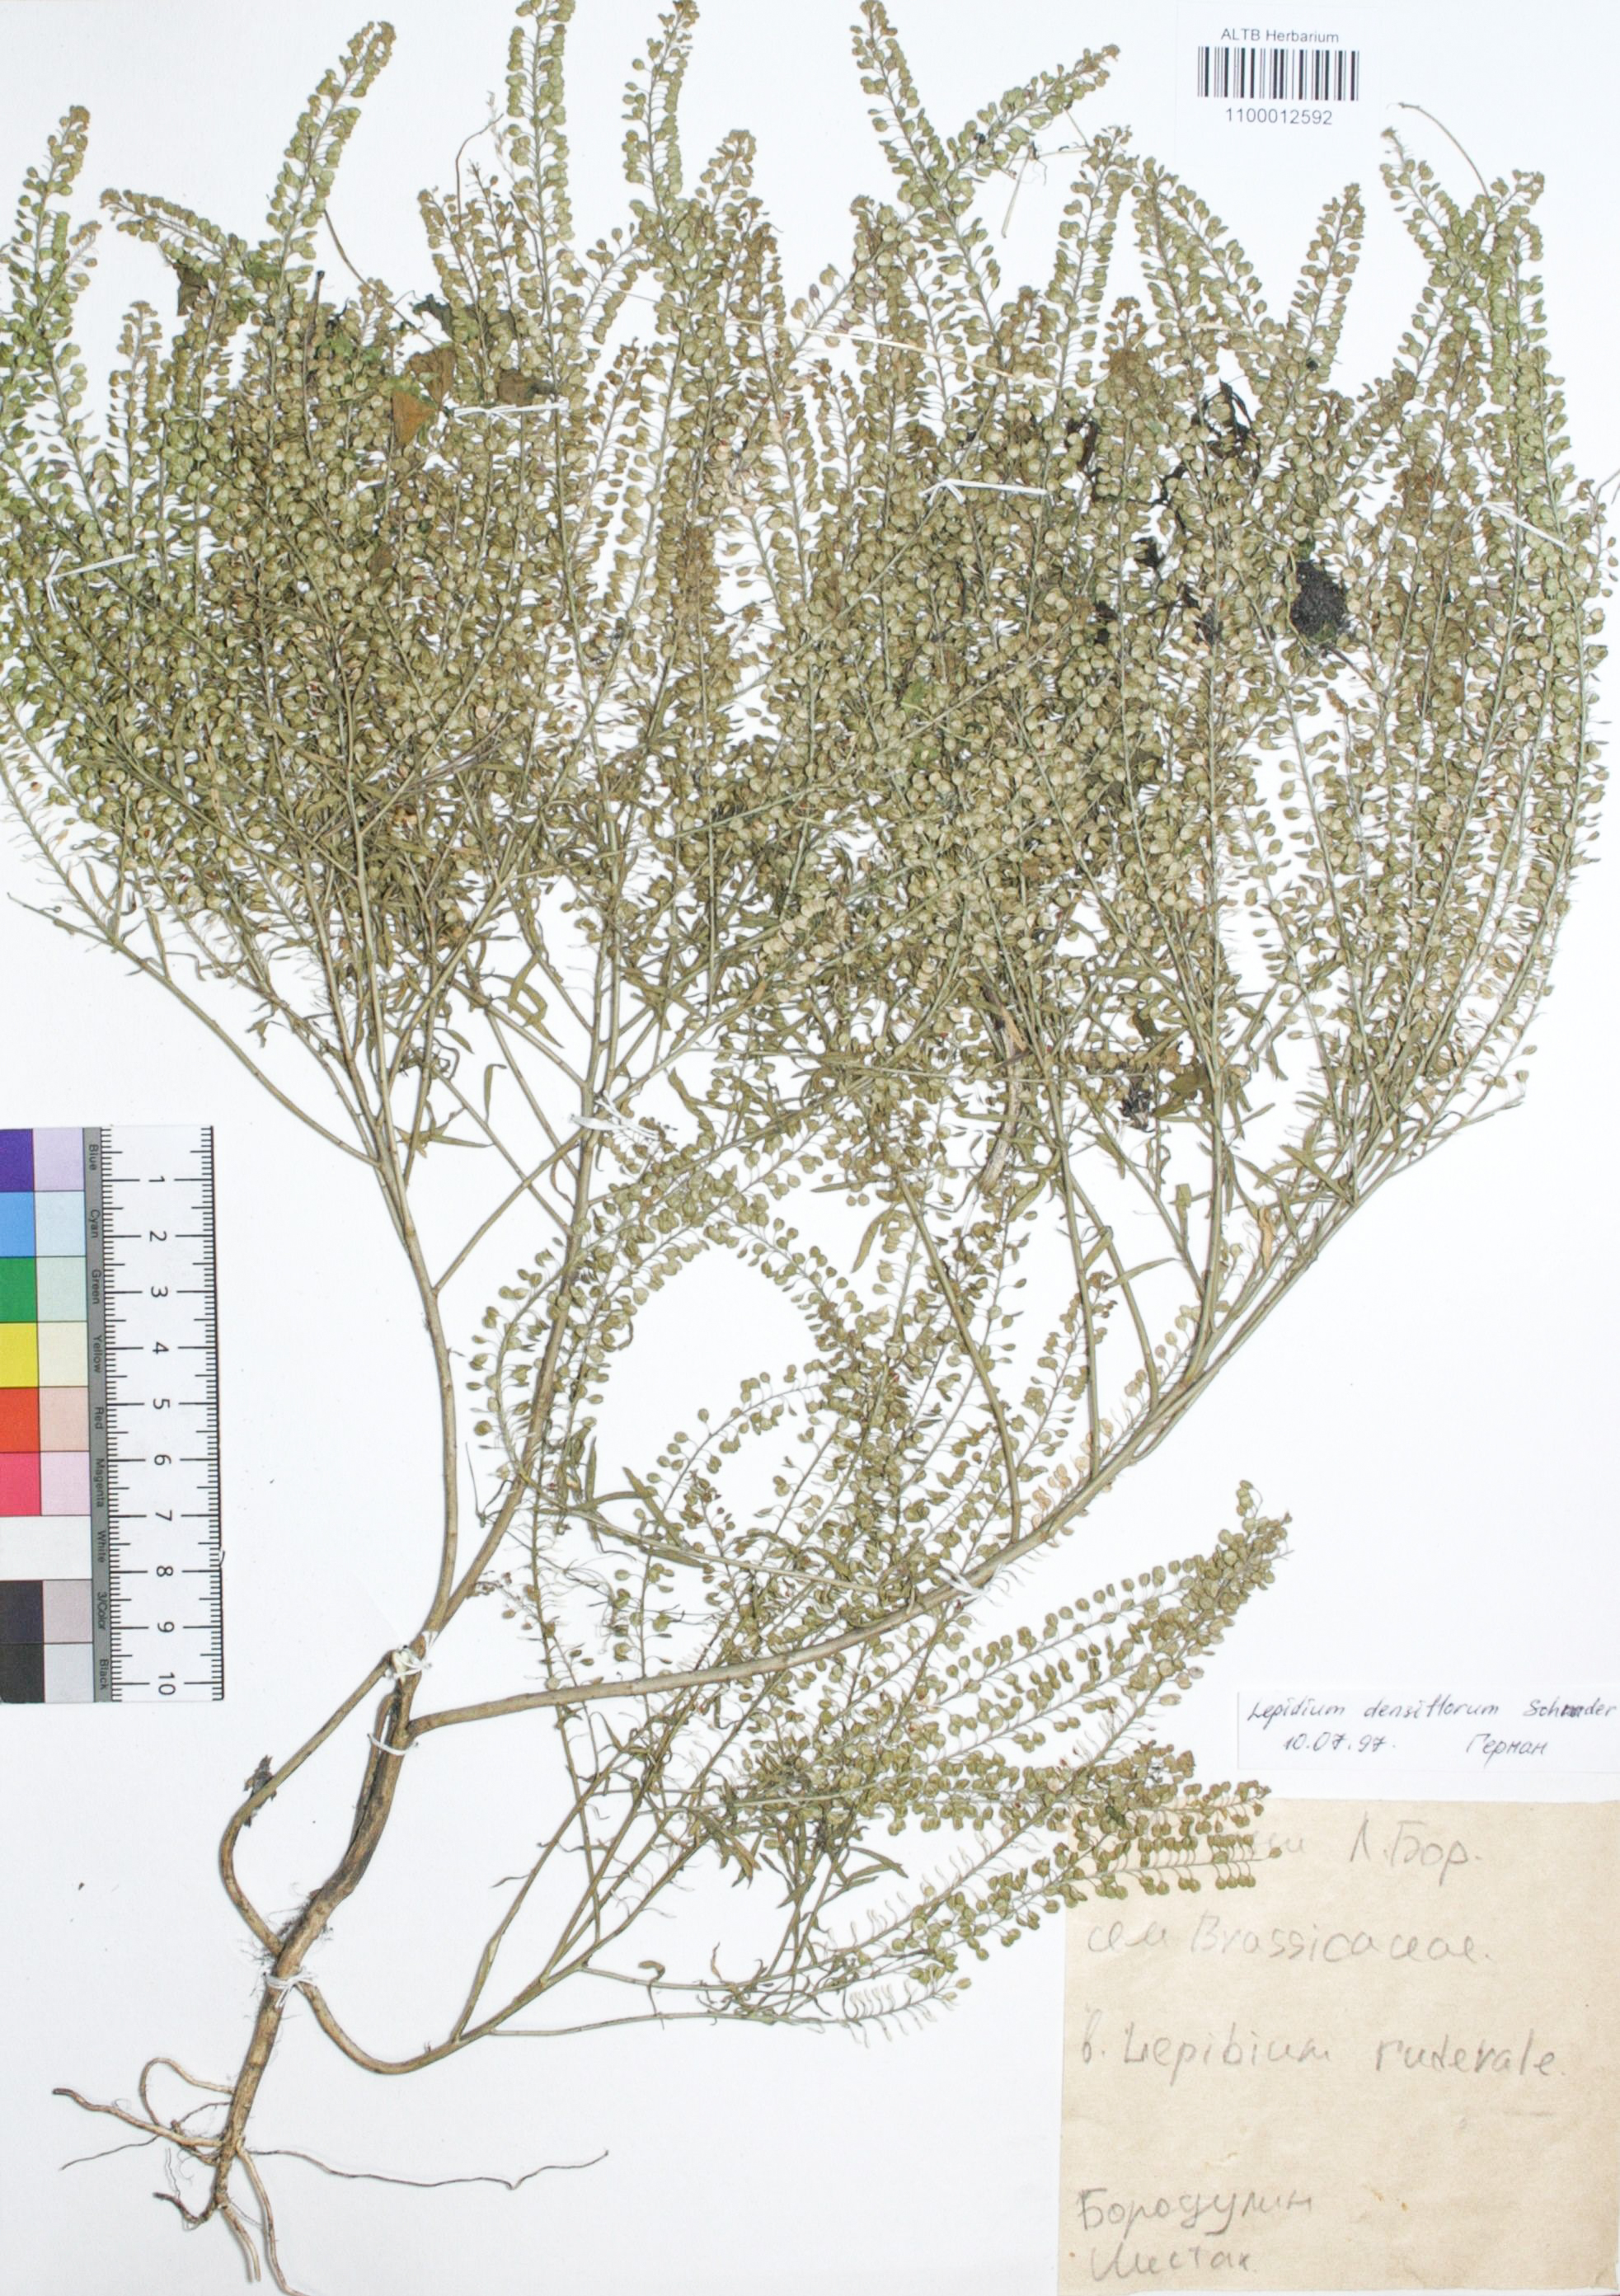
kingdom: Plantae
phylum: Tracheophyta
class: Magnoliopsida
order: Brassicales
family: Brassicaceae
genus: Lepidium
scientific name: Lepidium densiflorum
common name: Miner's pepperwort
